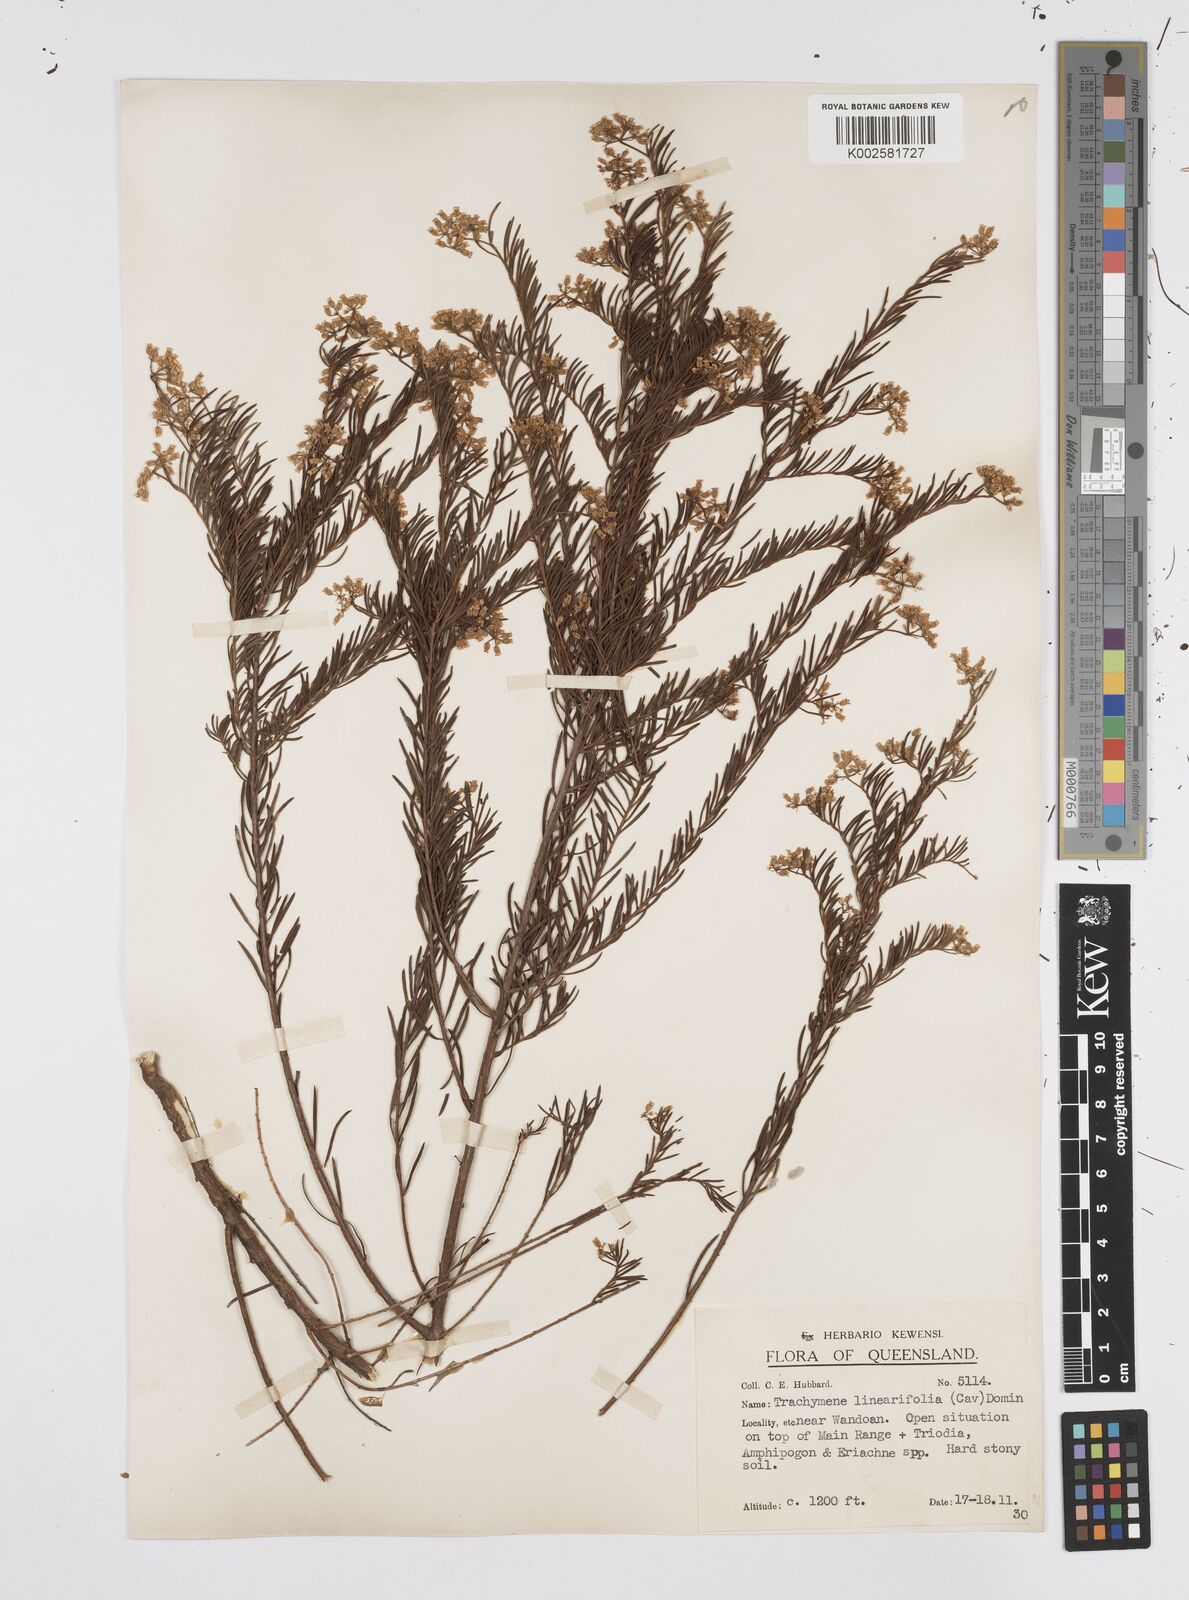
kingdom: Plantae
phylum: Tracheophyta
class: Magnoliopsida
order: Apiales
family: Apiaceae
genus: Platysace
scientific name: Platysace ericoides
